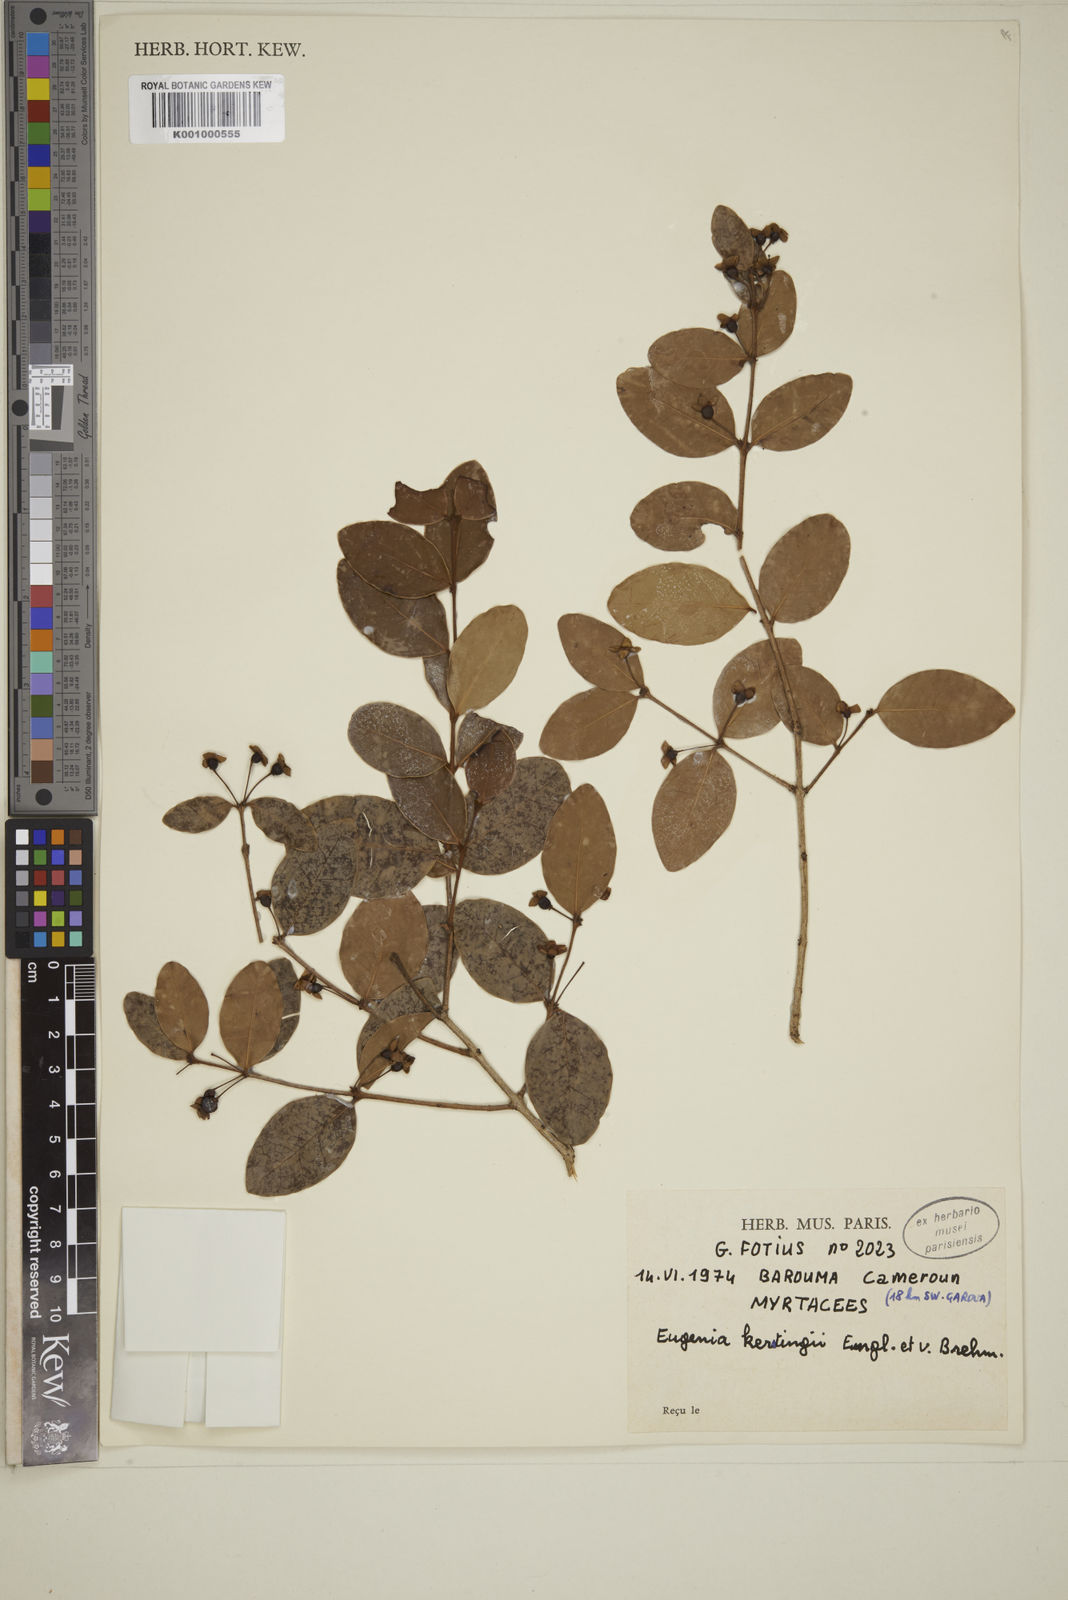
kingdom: Plantae
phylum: Tracheophyta
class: Magnoliopsida
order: Myrtales
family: Myrtaceae
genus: Eugenia
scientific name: Eugenia kerstingii
